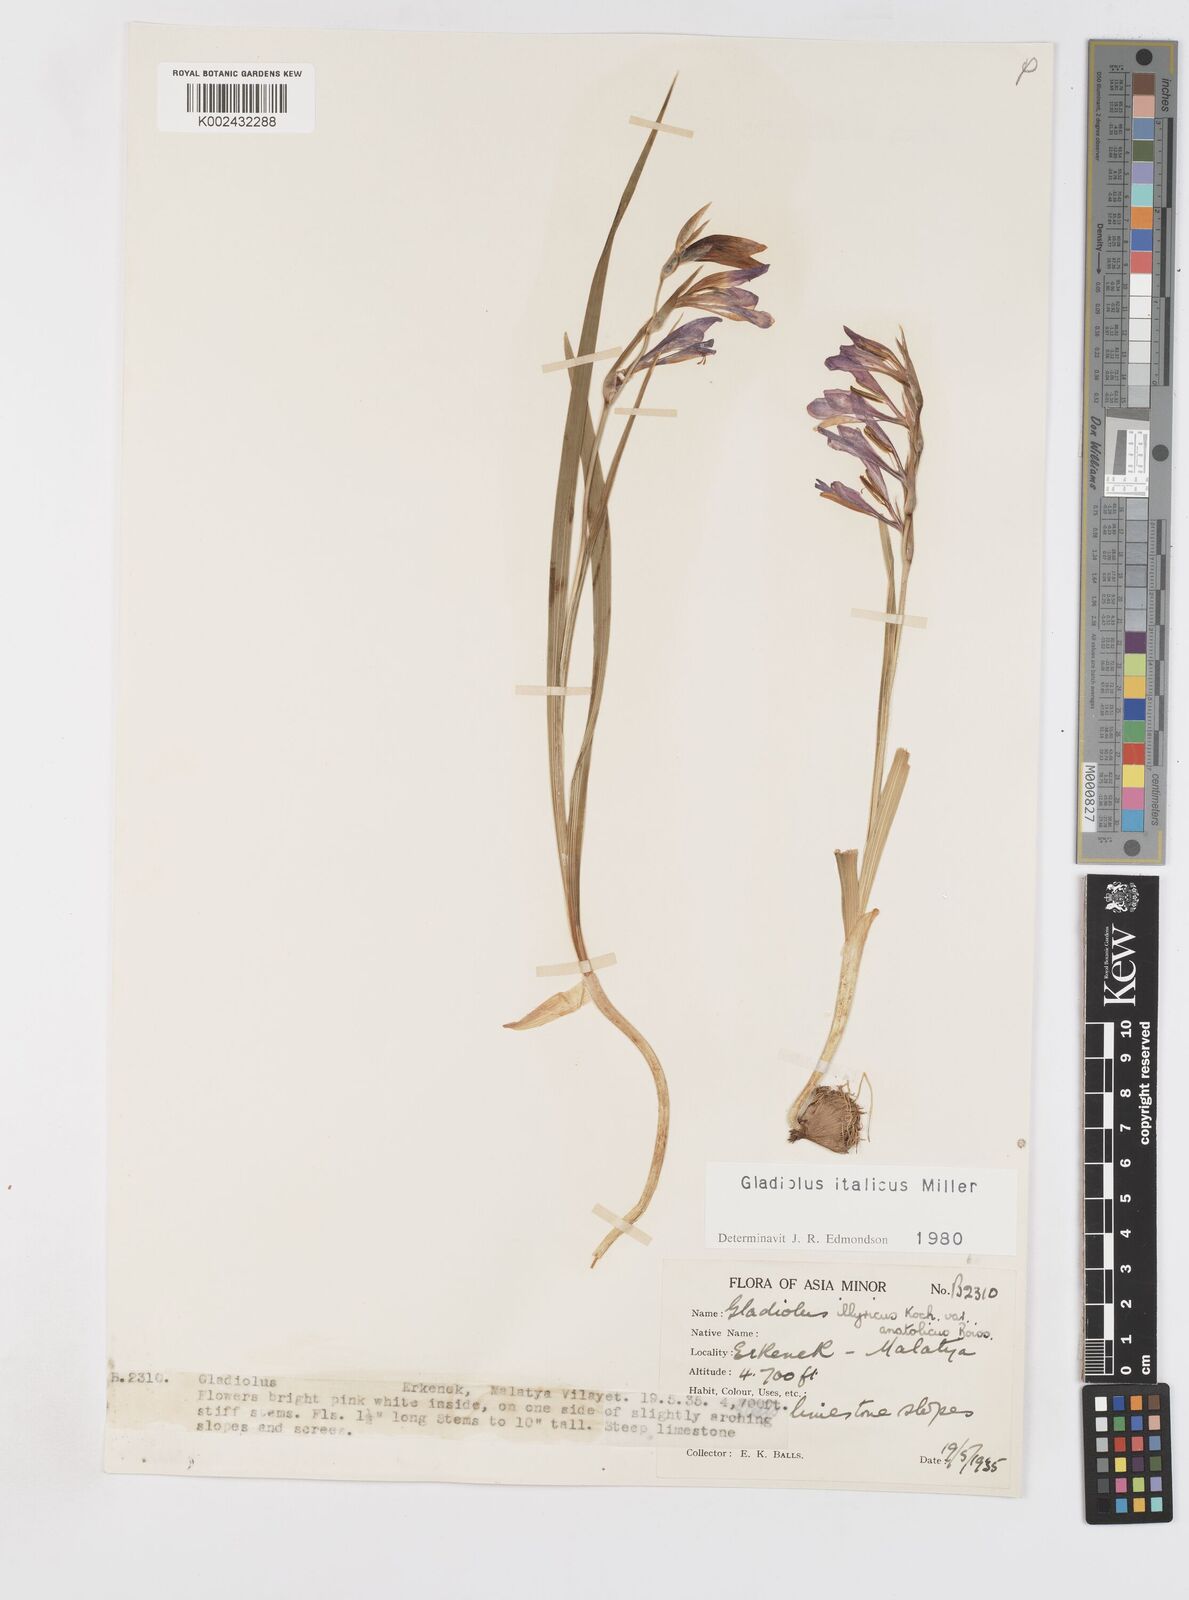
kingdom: Plantae
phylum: Tracheophyta
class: Liliopsida
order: Asparagales
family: Iridaceae
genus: Gladiolus
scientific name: Gladiolus italicus
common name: Field gladiolus
